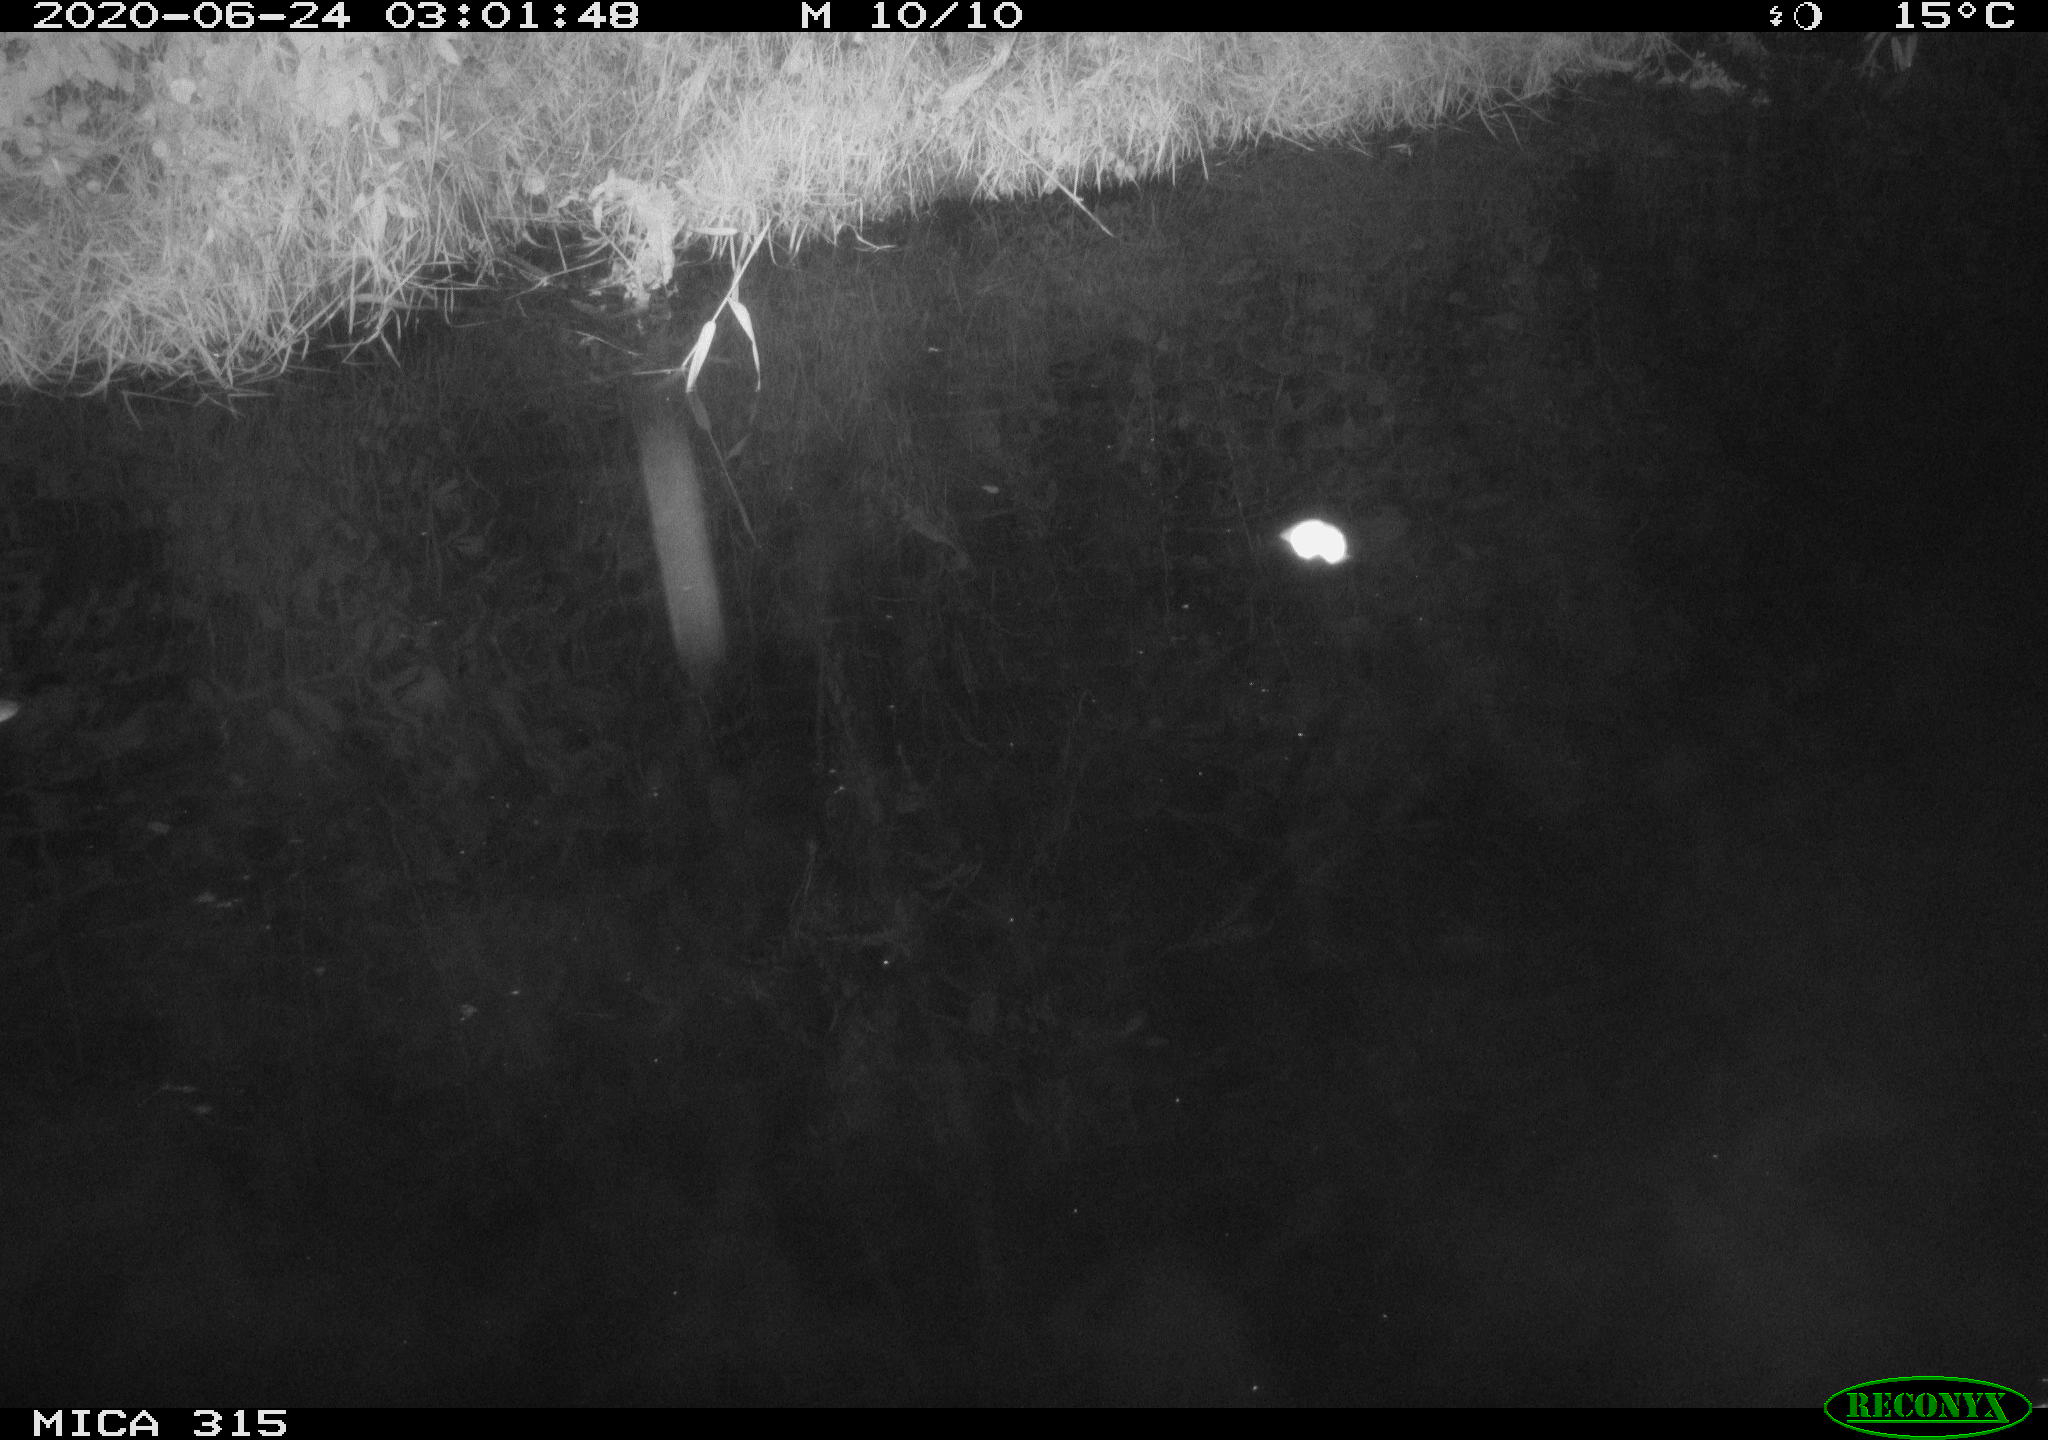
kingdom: Animalia
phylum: Chordata
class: Aves
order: Anseriformes
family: Anatidae
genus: Anas
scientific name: Anas platyrhynchos
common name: Mallard
